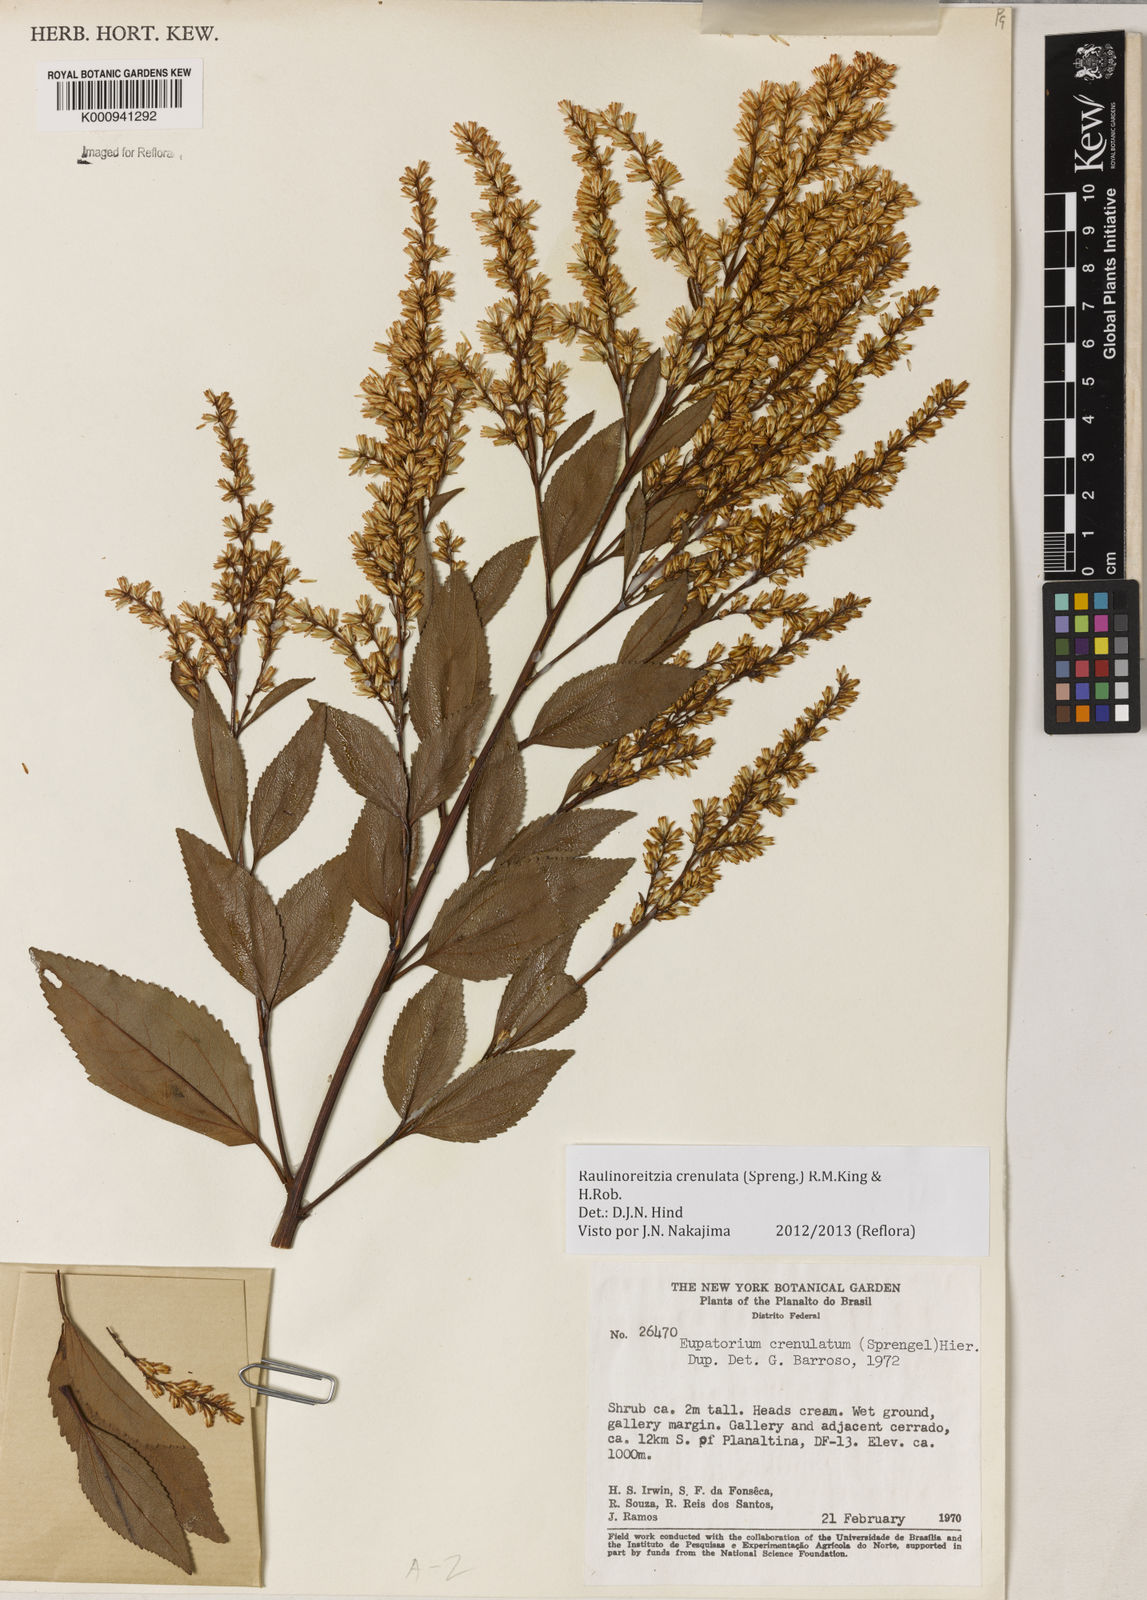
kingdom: Plantae
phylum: Tracheophyta
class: Magnoliopsida
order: Asterales
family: Asteraceae
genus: Raulinoreitzia
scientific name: Raulinoreitzia crenulata
